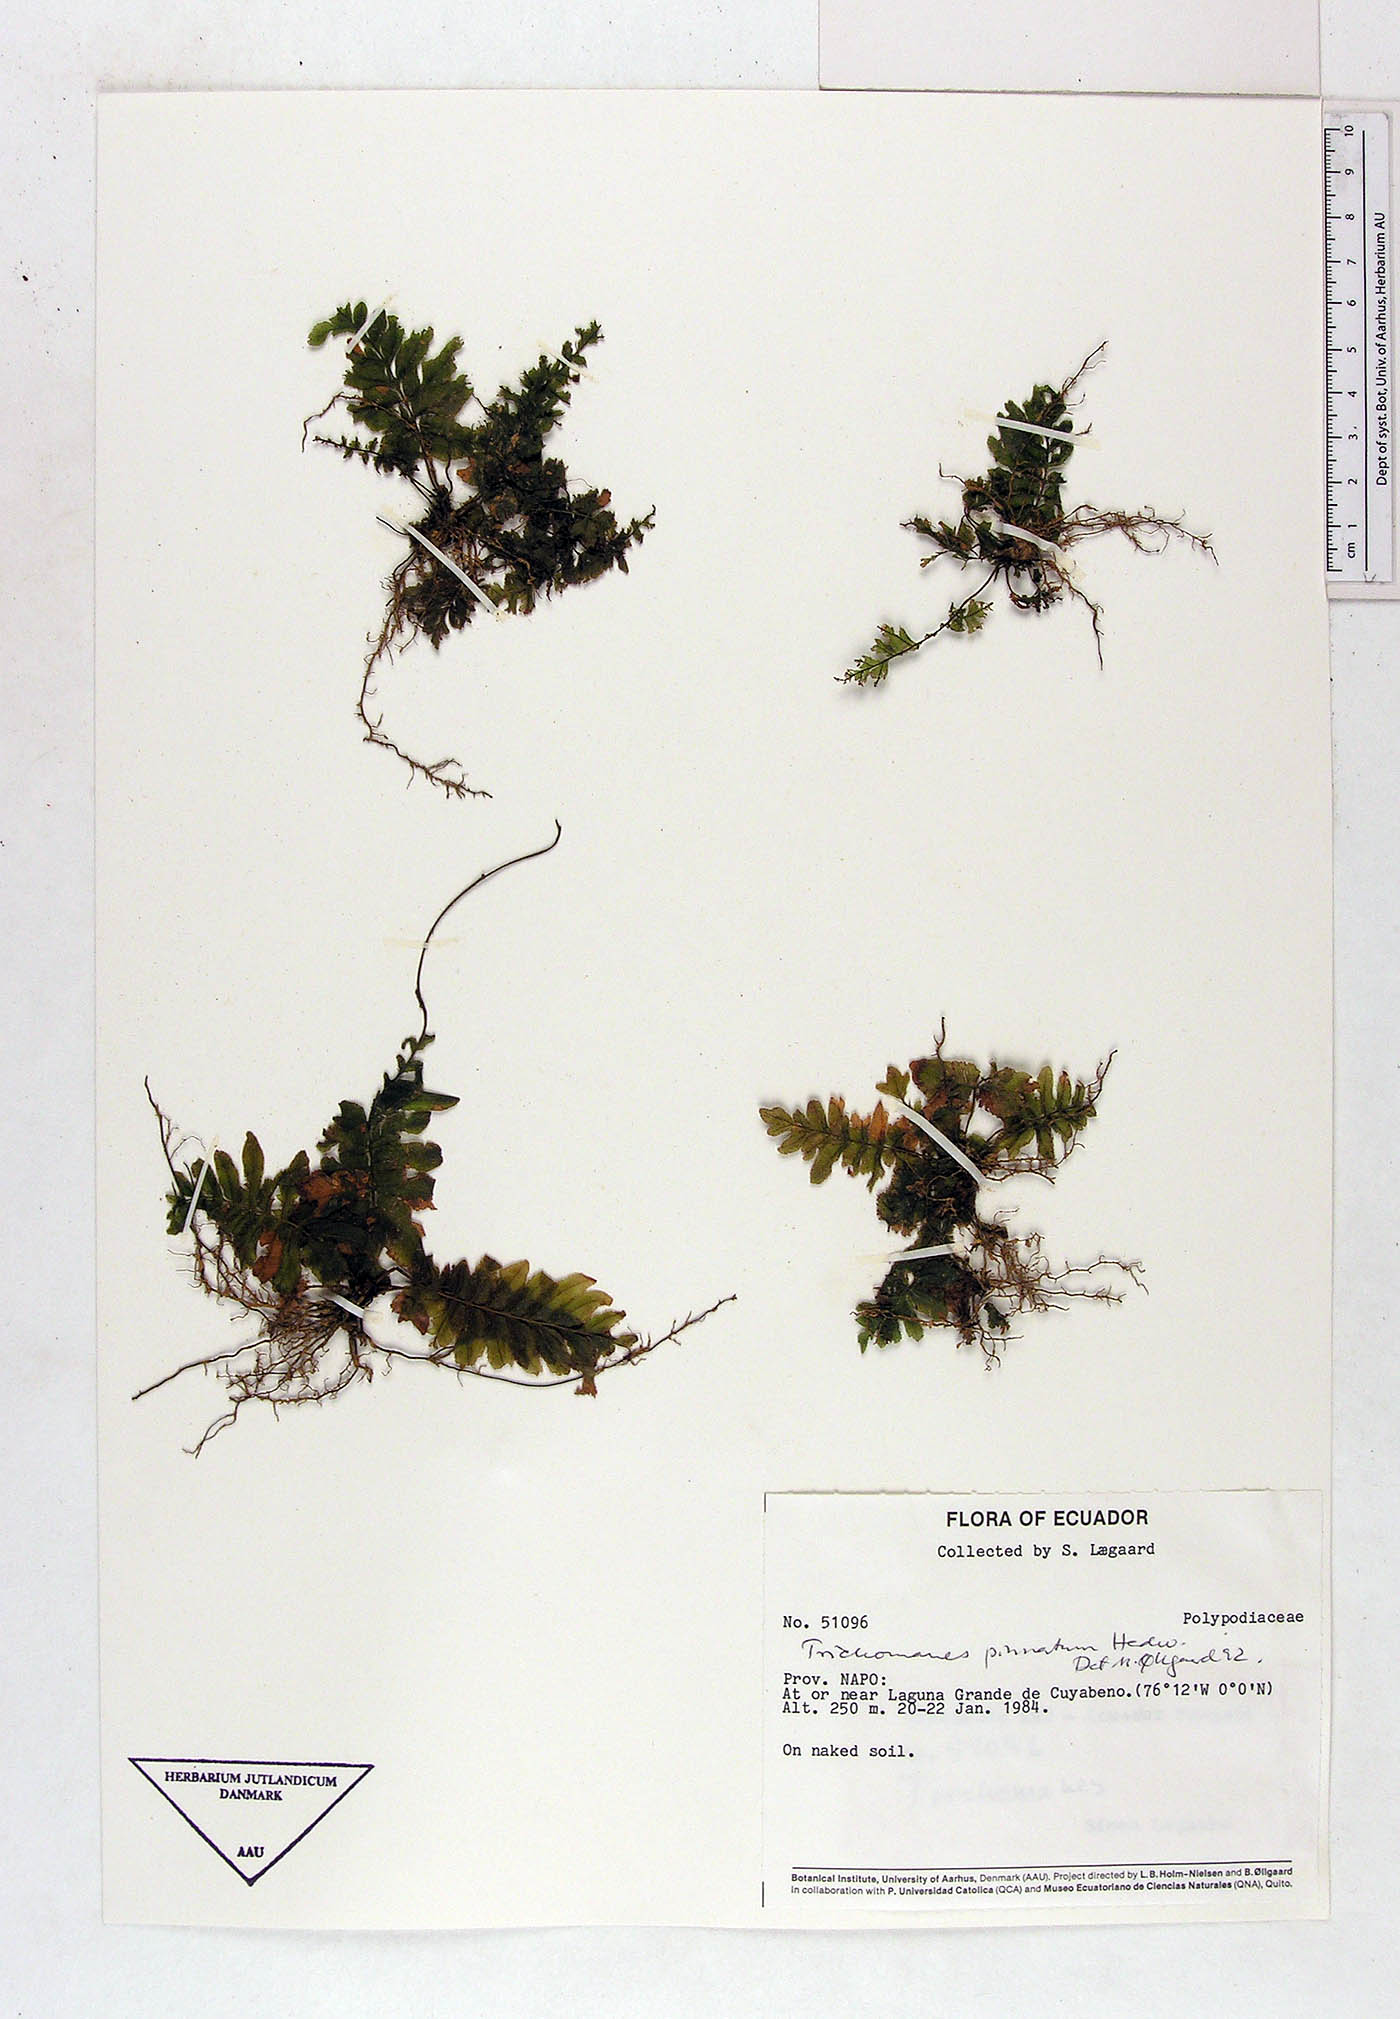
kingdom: Plantae
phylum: Tracheophyta
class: Polypodiopsida
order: Polypodiales
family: Polypodiaceae
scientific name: Polypodiaceae
